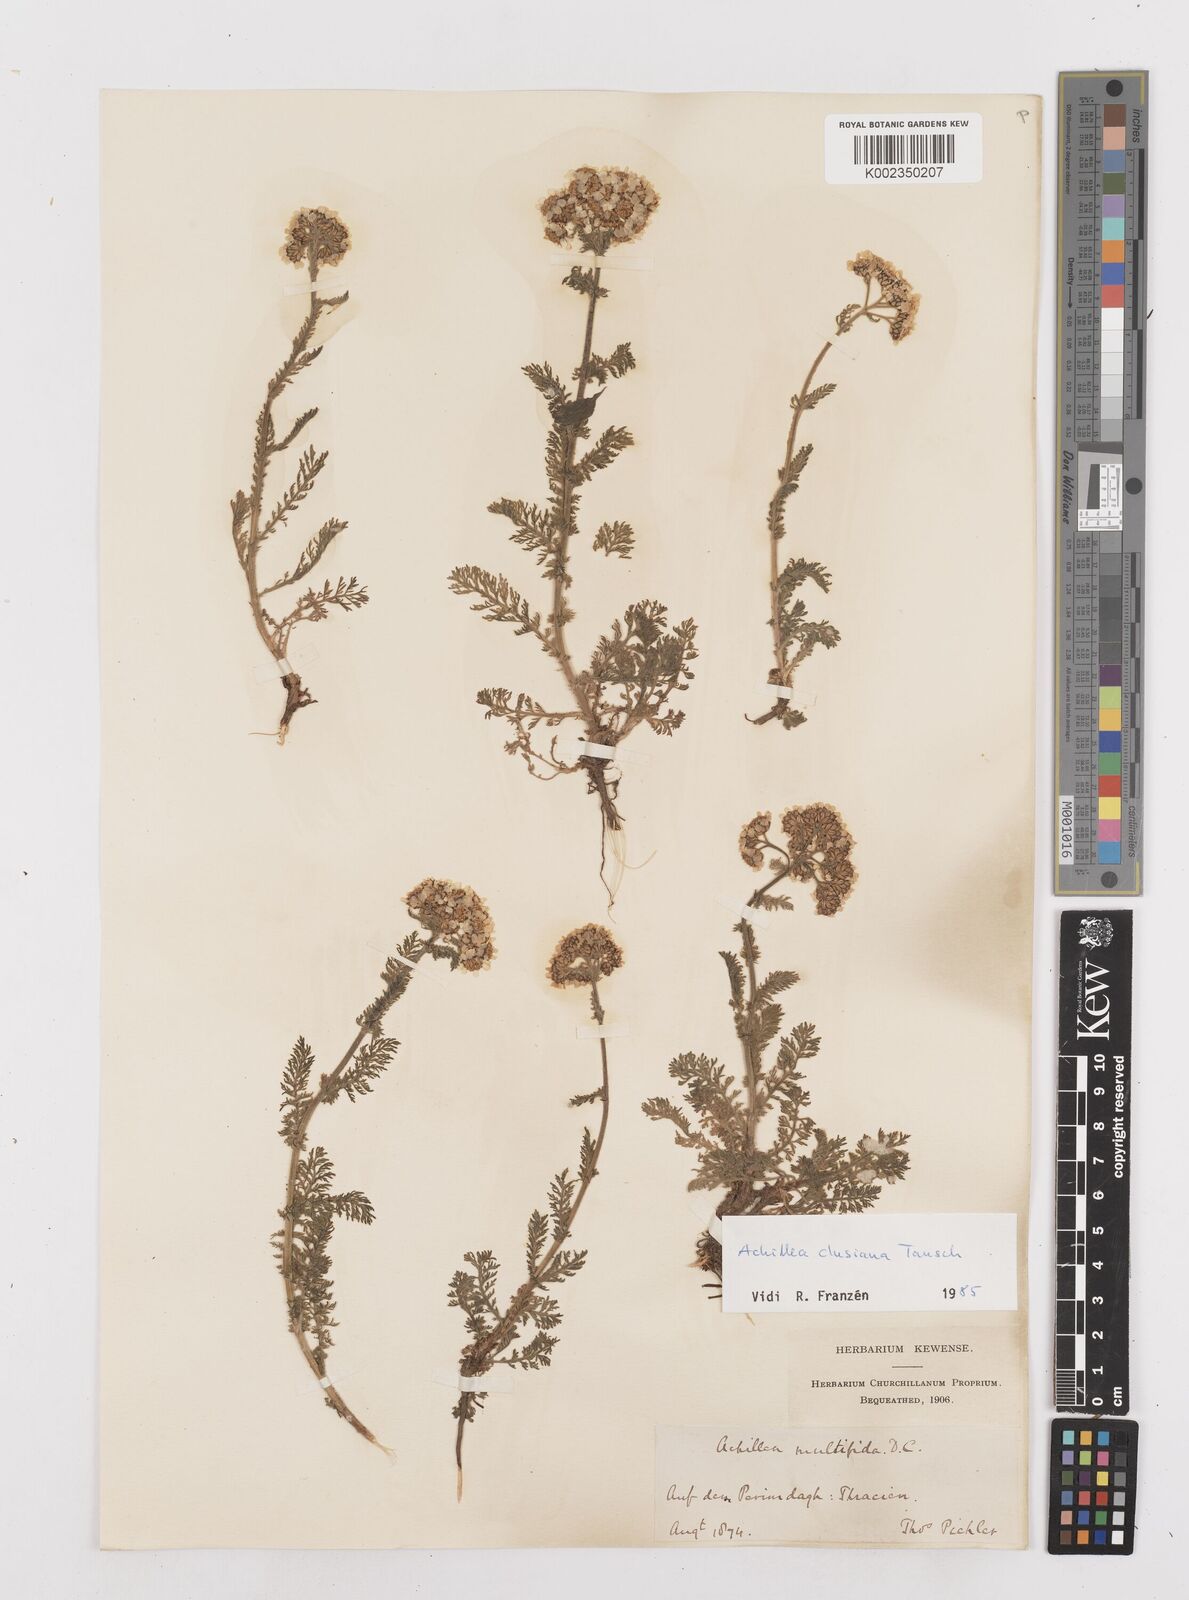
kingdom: Plantae
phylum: Tracheophyta
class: Magnoliopsida
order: Asterales
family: Asteraceae
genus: Achillea
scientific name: Achillea multifida
